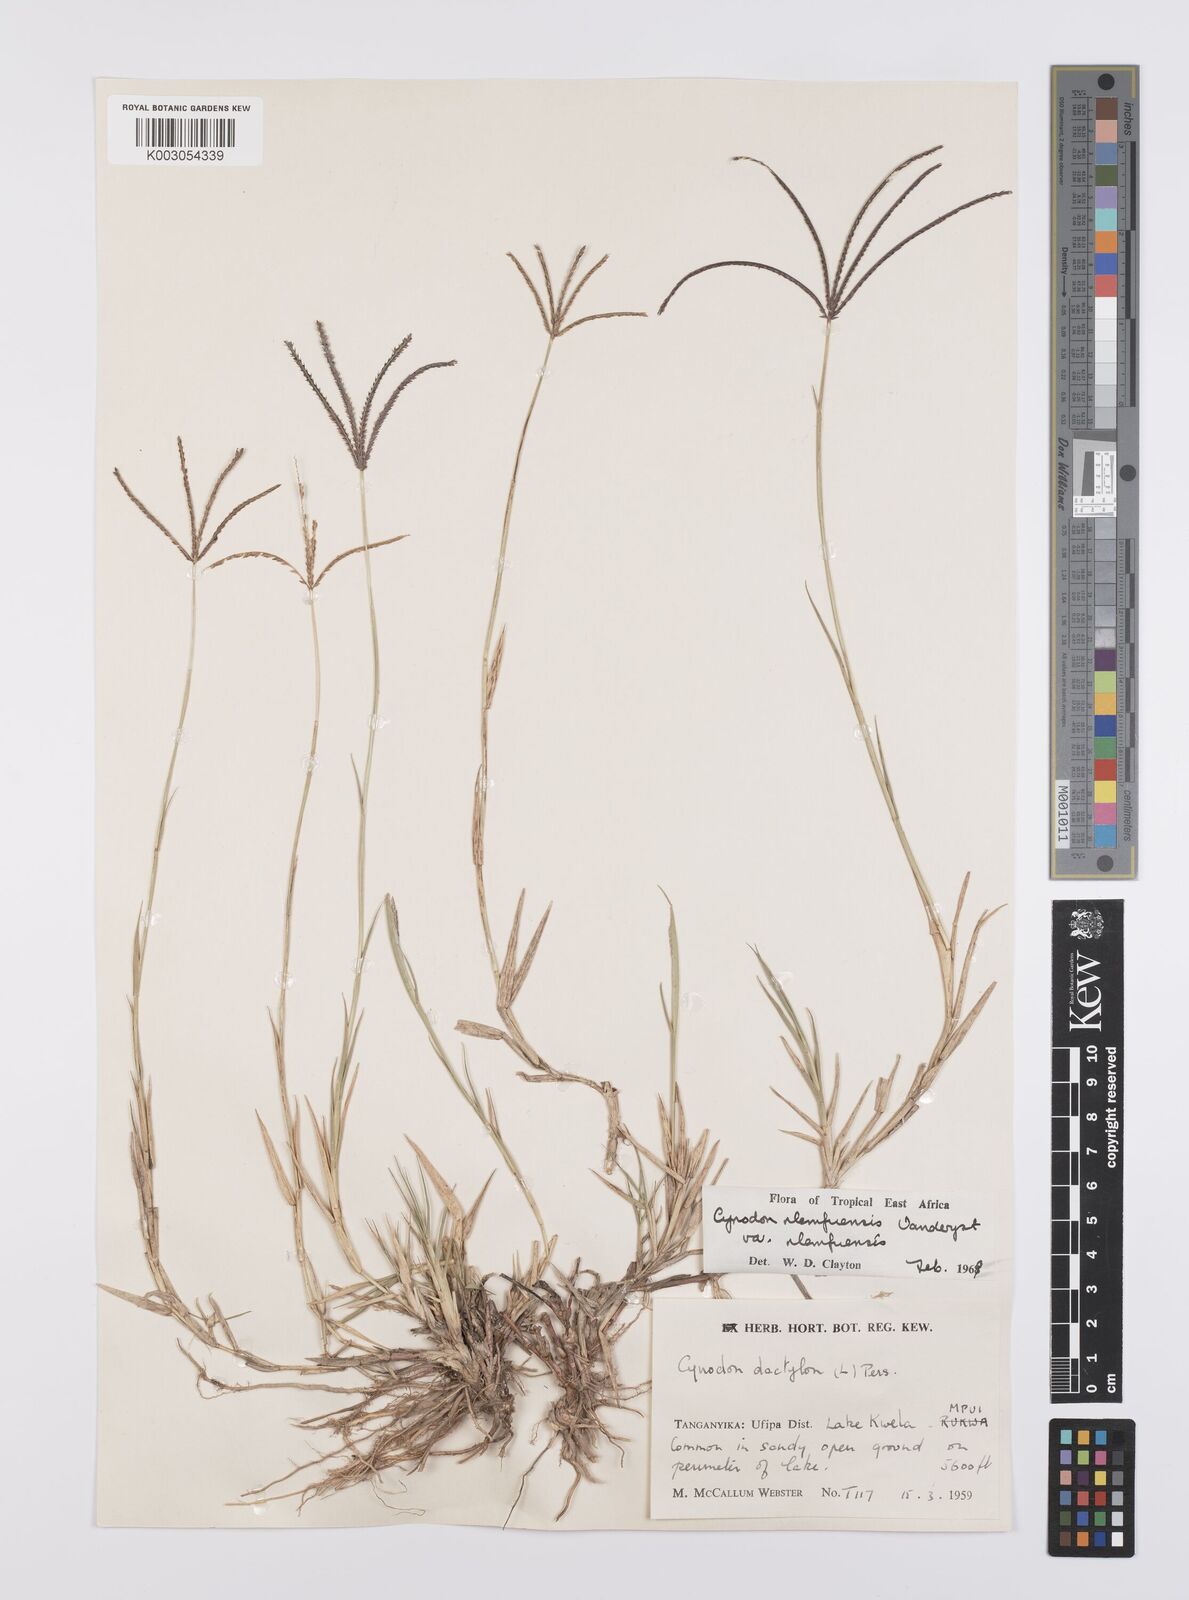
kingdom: Plantae
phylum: Tracheophyta
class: Liliopsida
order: Poales
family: Poaceae
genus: Cynodon
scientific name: Cynodon nlemfuensis
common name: African bermudagrass
